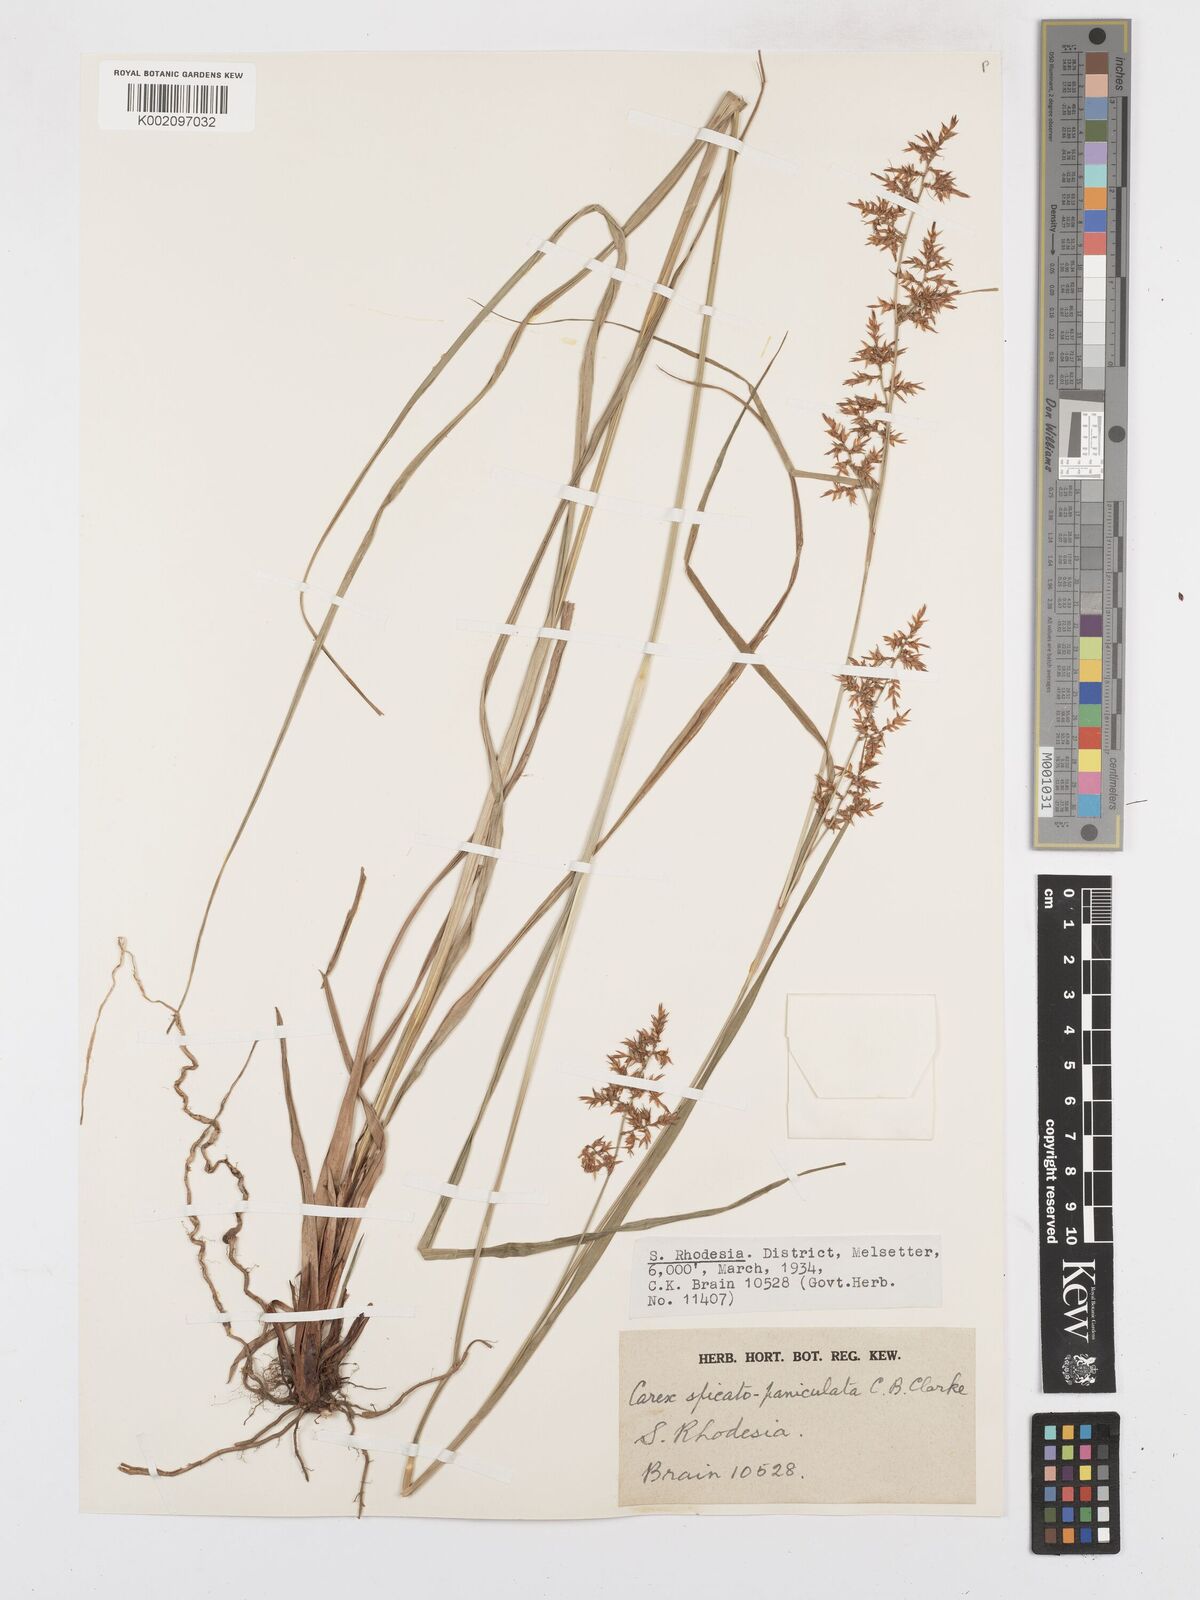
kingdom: Plantae
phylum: Tracheophyta
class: Liliopsida
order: Poales
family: Cyperaceae
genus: Carex
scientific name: Carex spicatopaniculata
